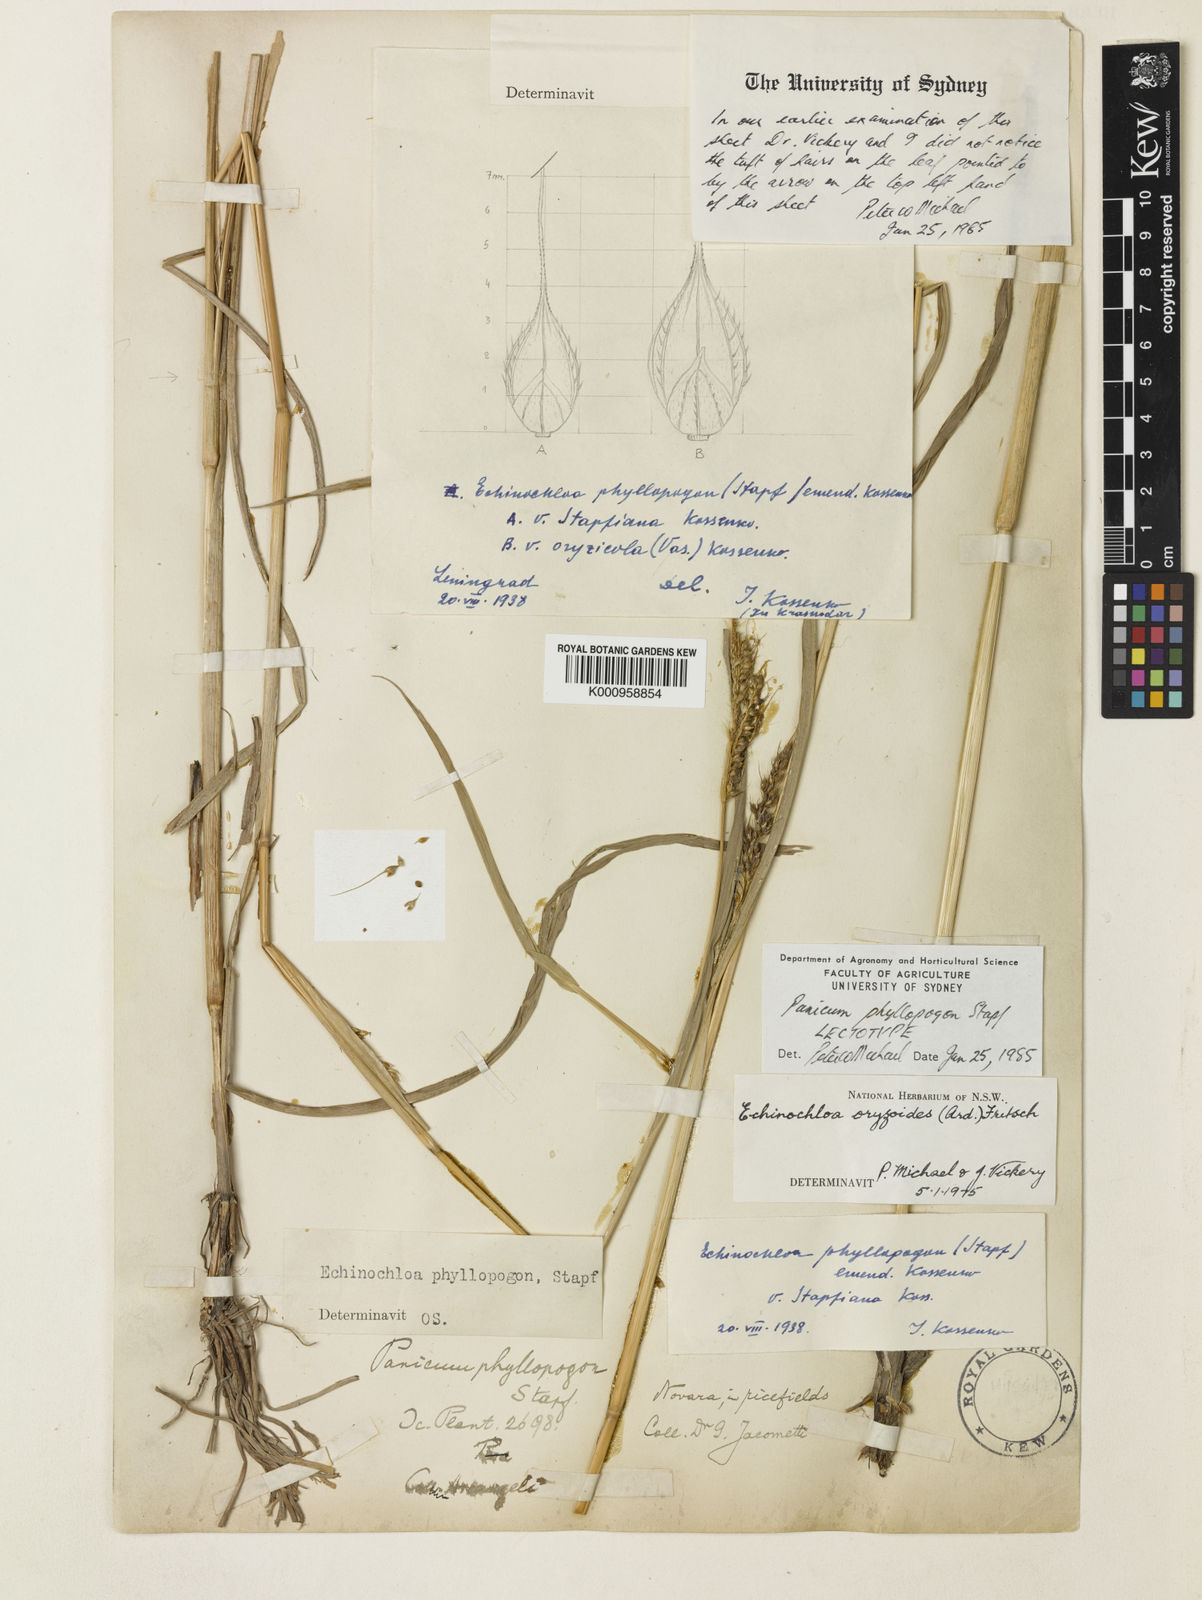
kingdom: Plantae
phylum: Tracheophyta
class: Liliopsida
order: Poales
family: Poaceae
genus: Echinochloa
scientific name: Echinochloa oryzoides
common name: Early water grass
